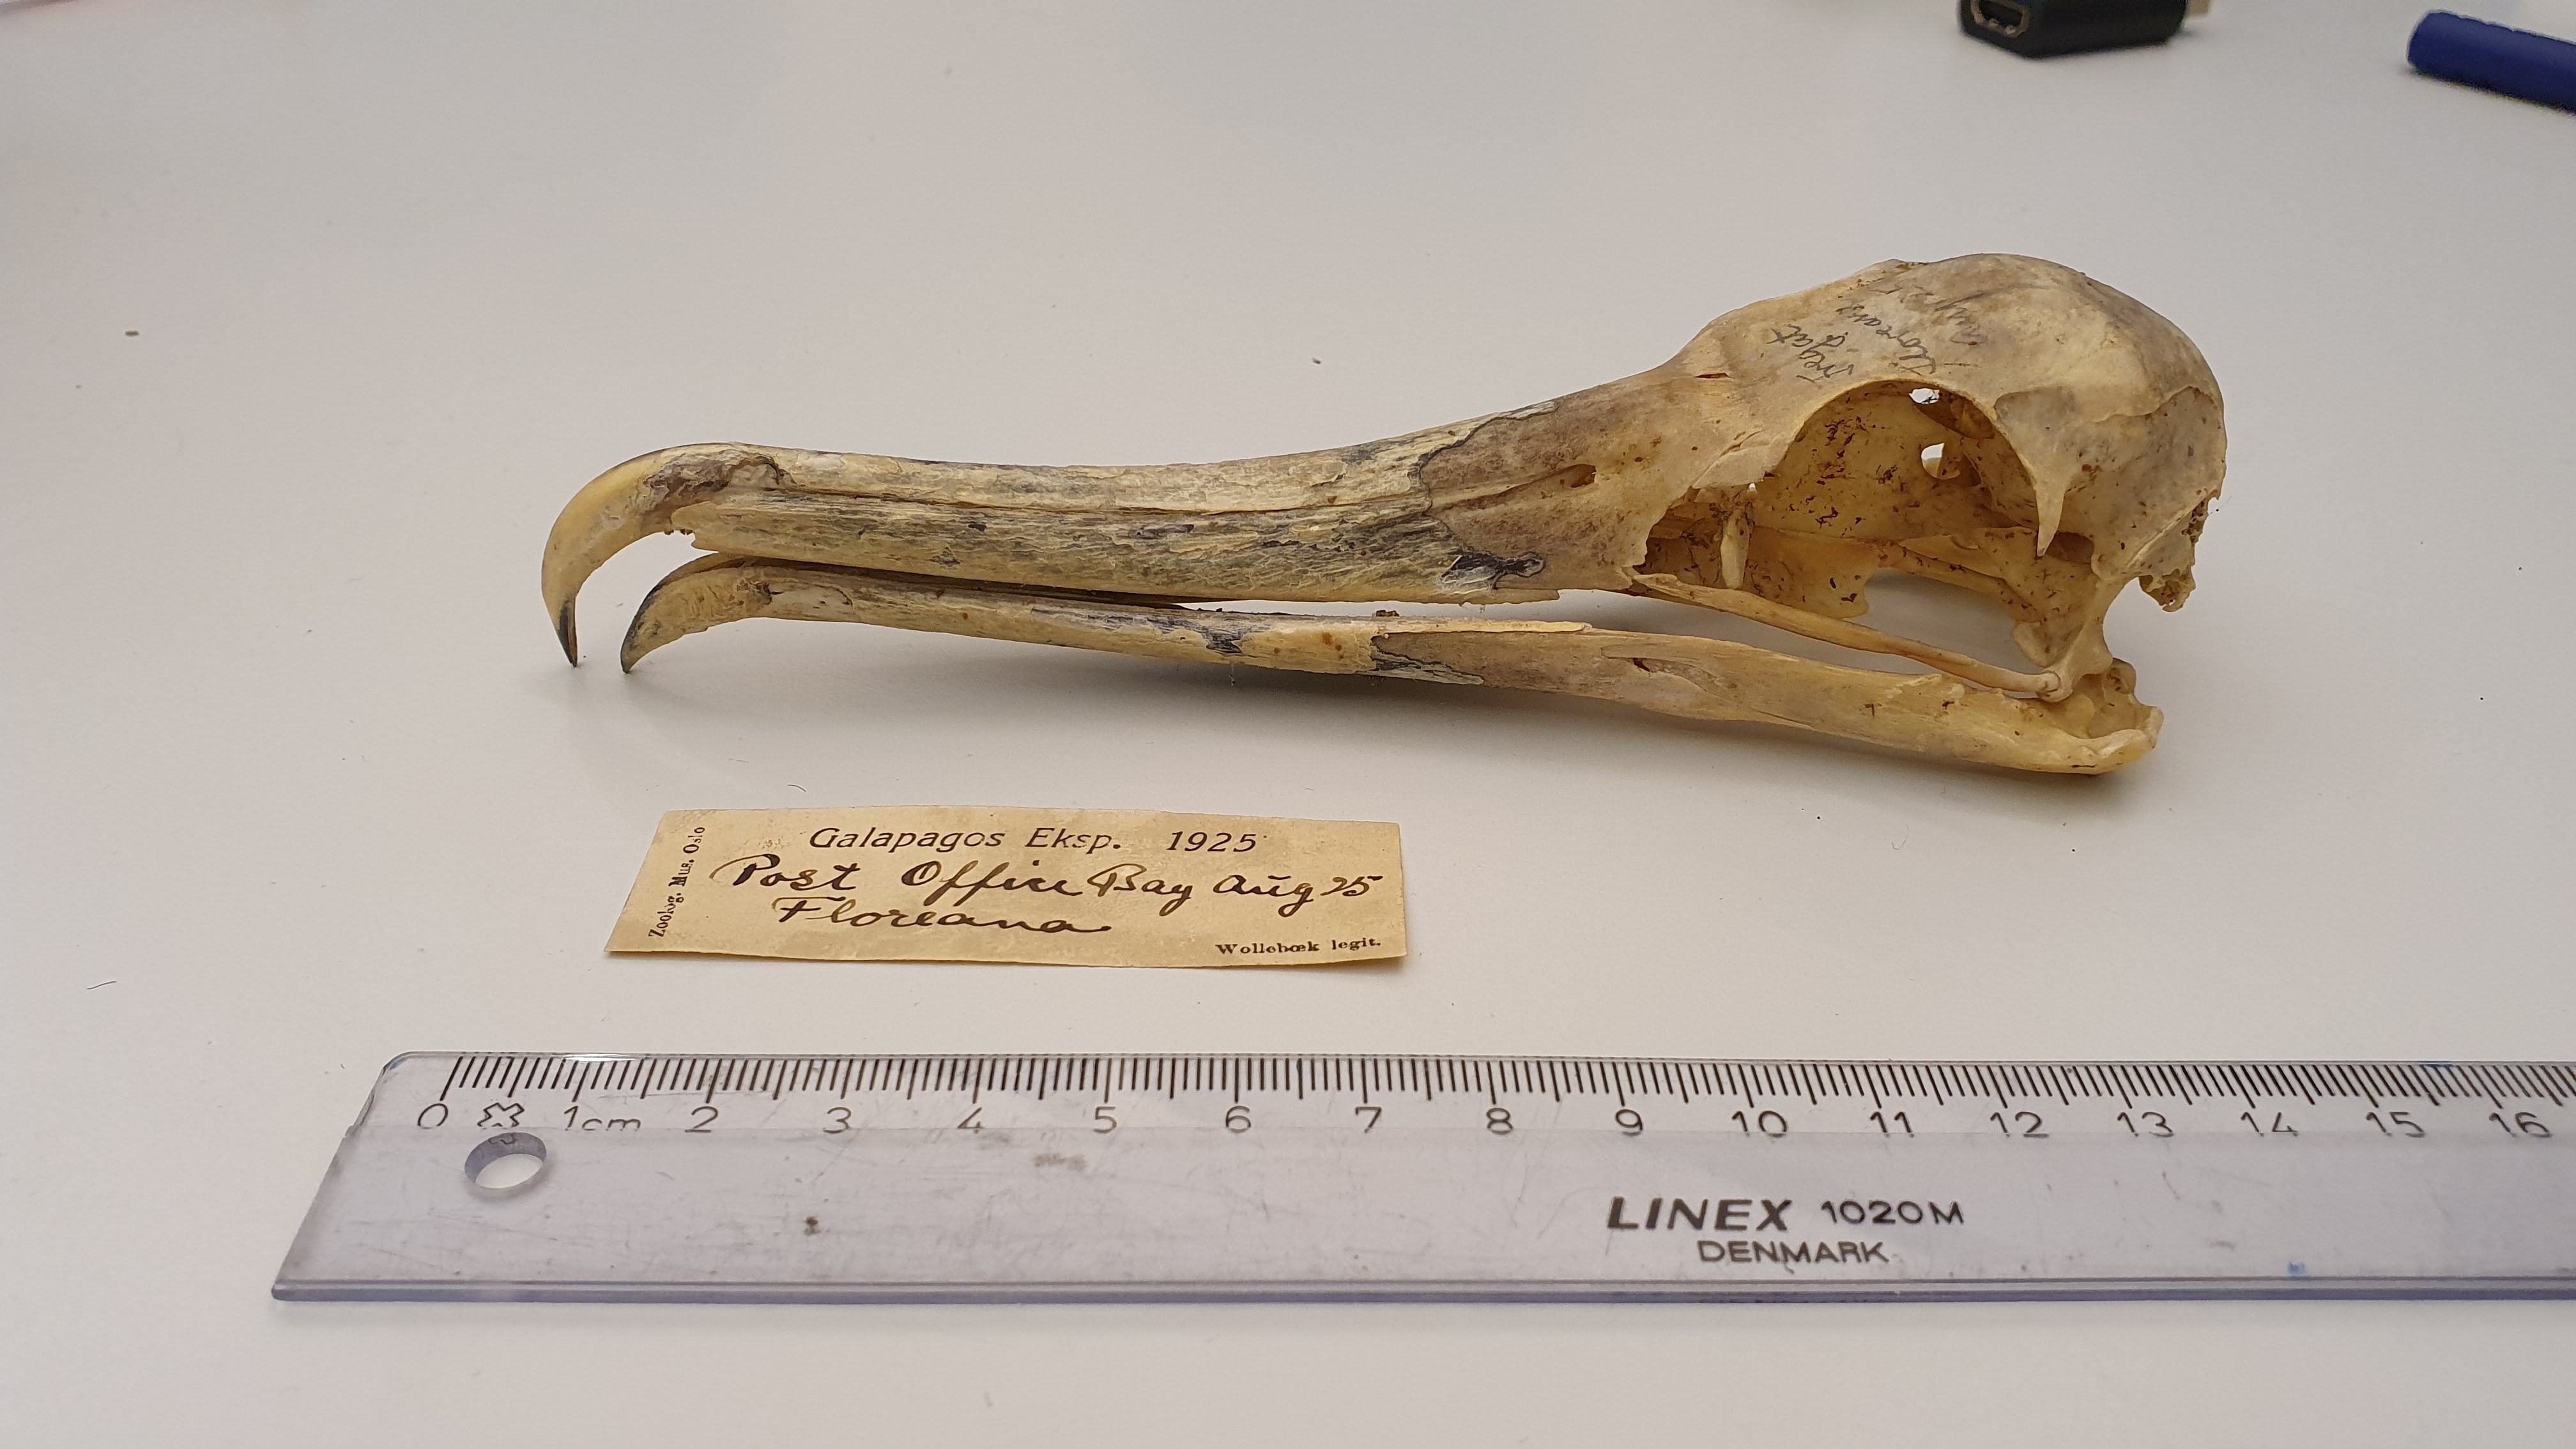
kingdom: Animalia
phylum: Chordata
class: Aves
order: Suliformes
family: Fregatidae
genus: Fregata
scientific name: Fregata
